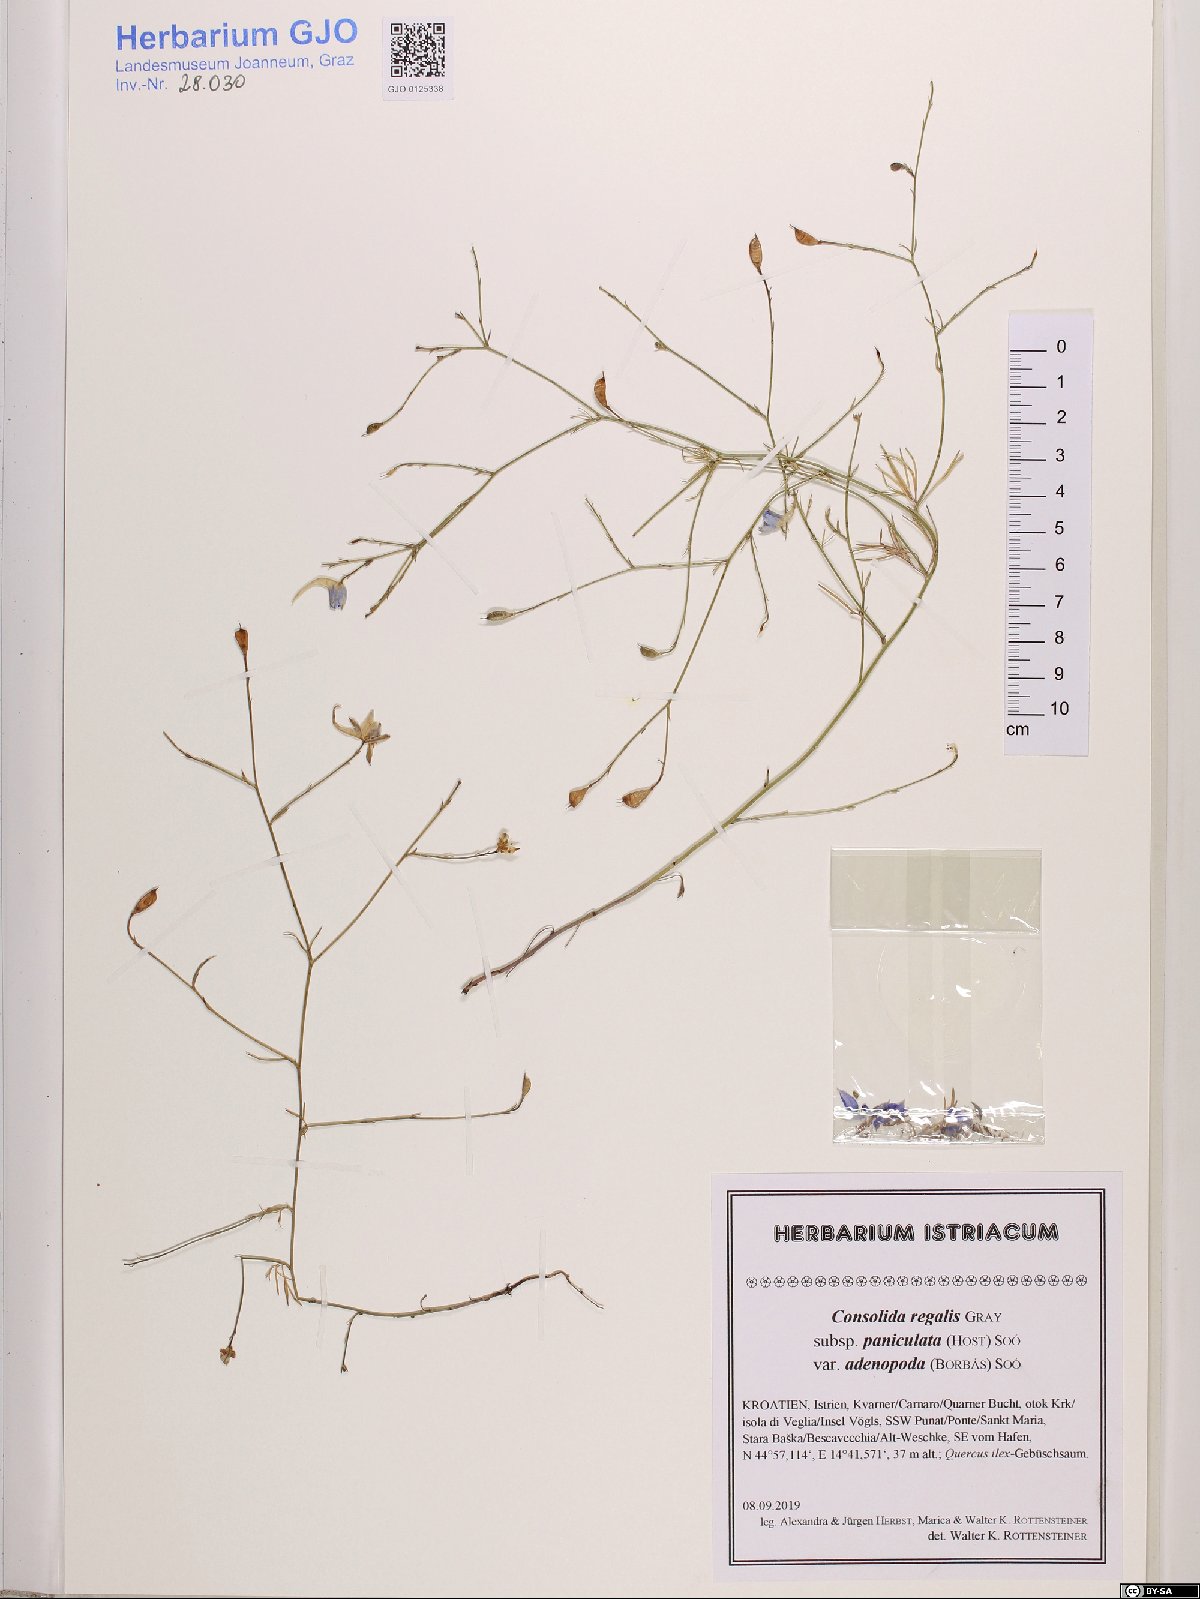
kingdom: Plantae
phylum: Tracheophyta
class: Magnoliopsida
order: Ranunculales
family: Ranunculaceae
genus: Delphinium
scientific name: Delphinium consolida
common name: Branching larkspur
